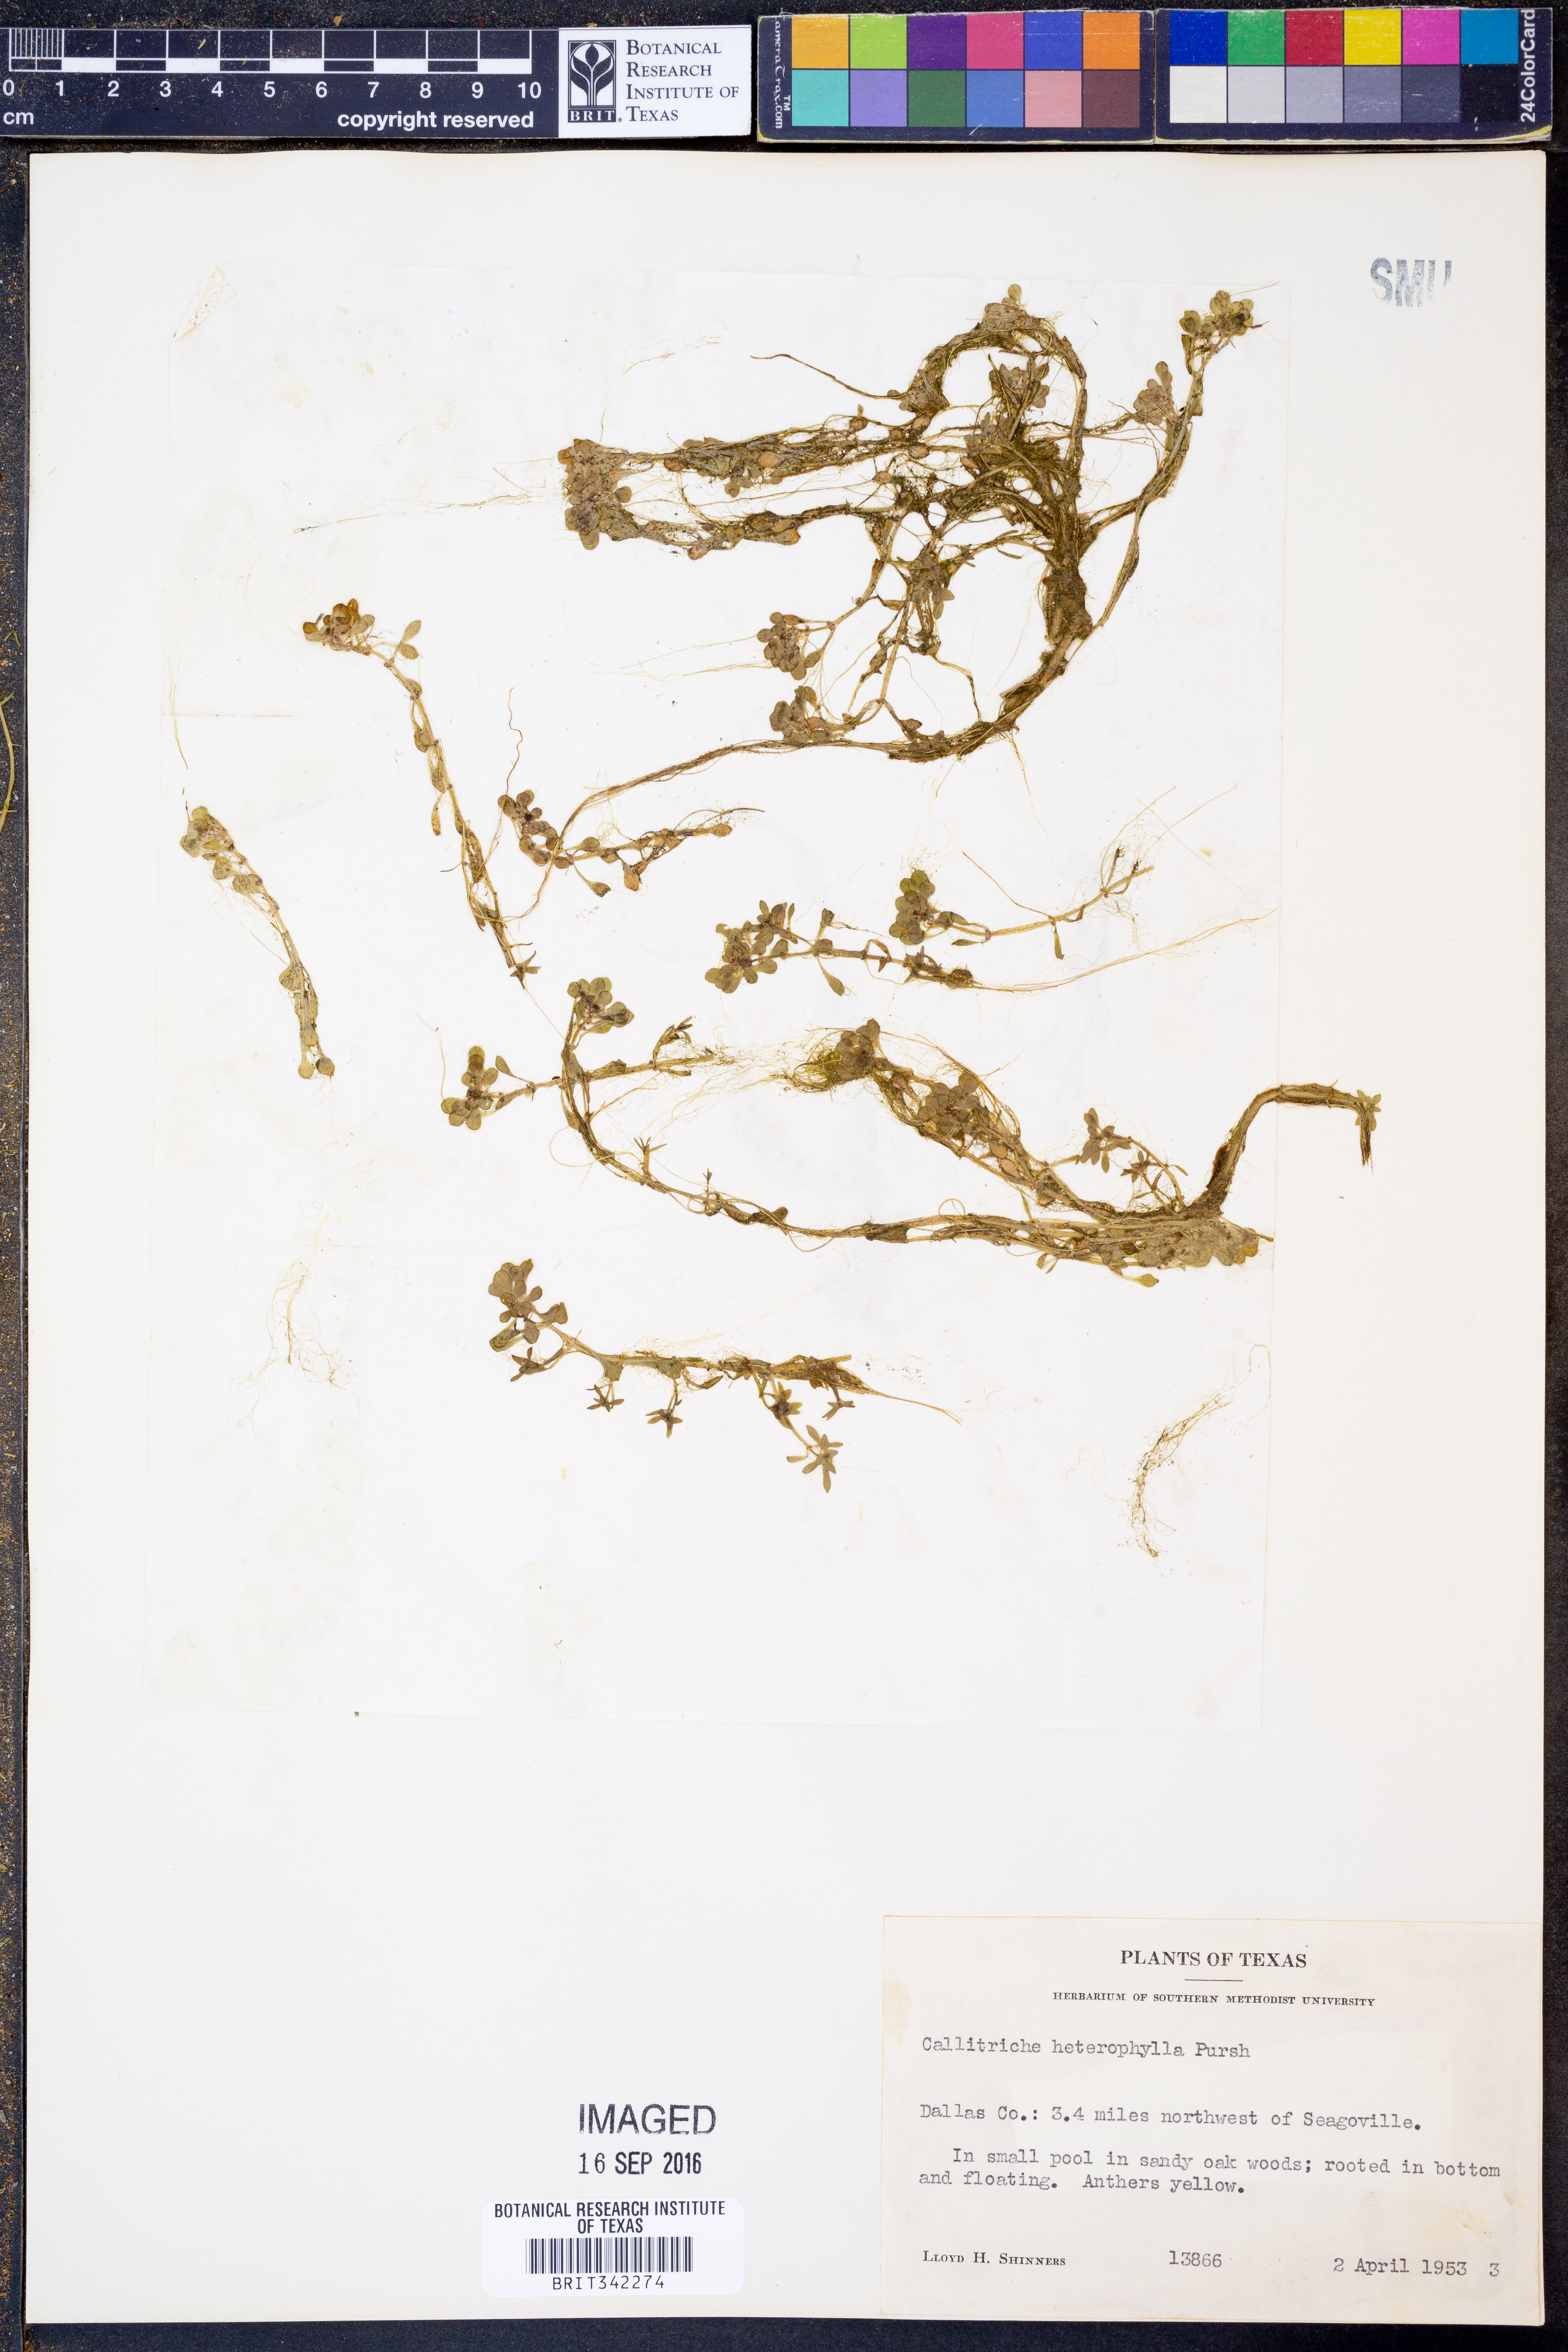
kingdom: Plantae
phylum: Tracheophyta
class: Magnoliopsida
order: Lamiales
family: Plantaginaceae
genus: Callitriche
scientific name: Callitriche heterophylla
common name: Two-headed water-starwort
